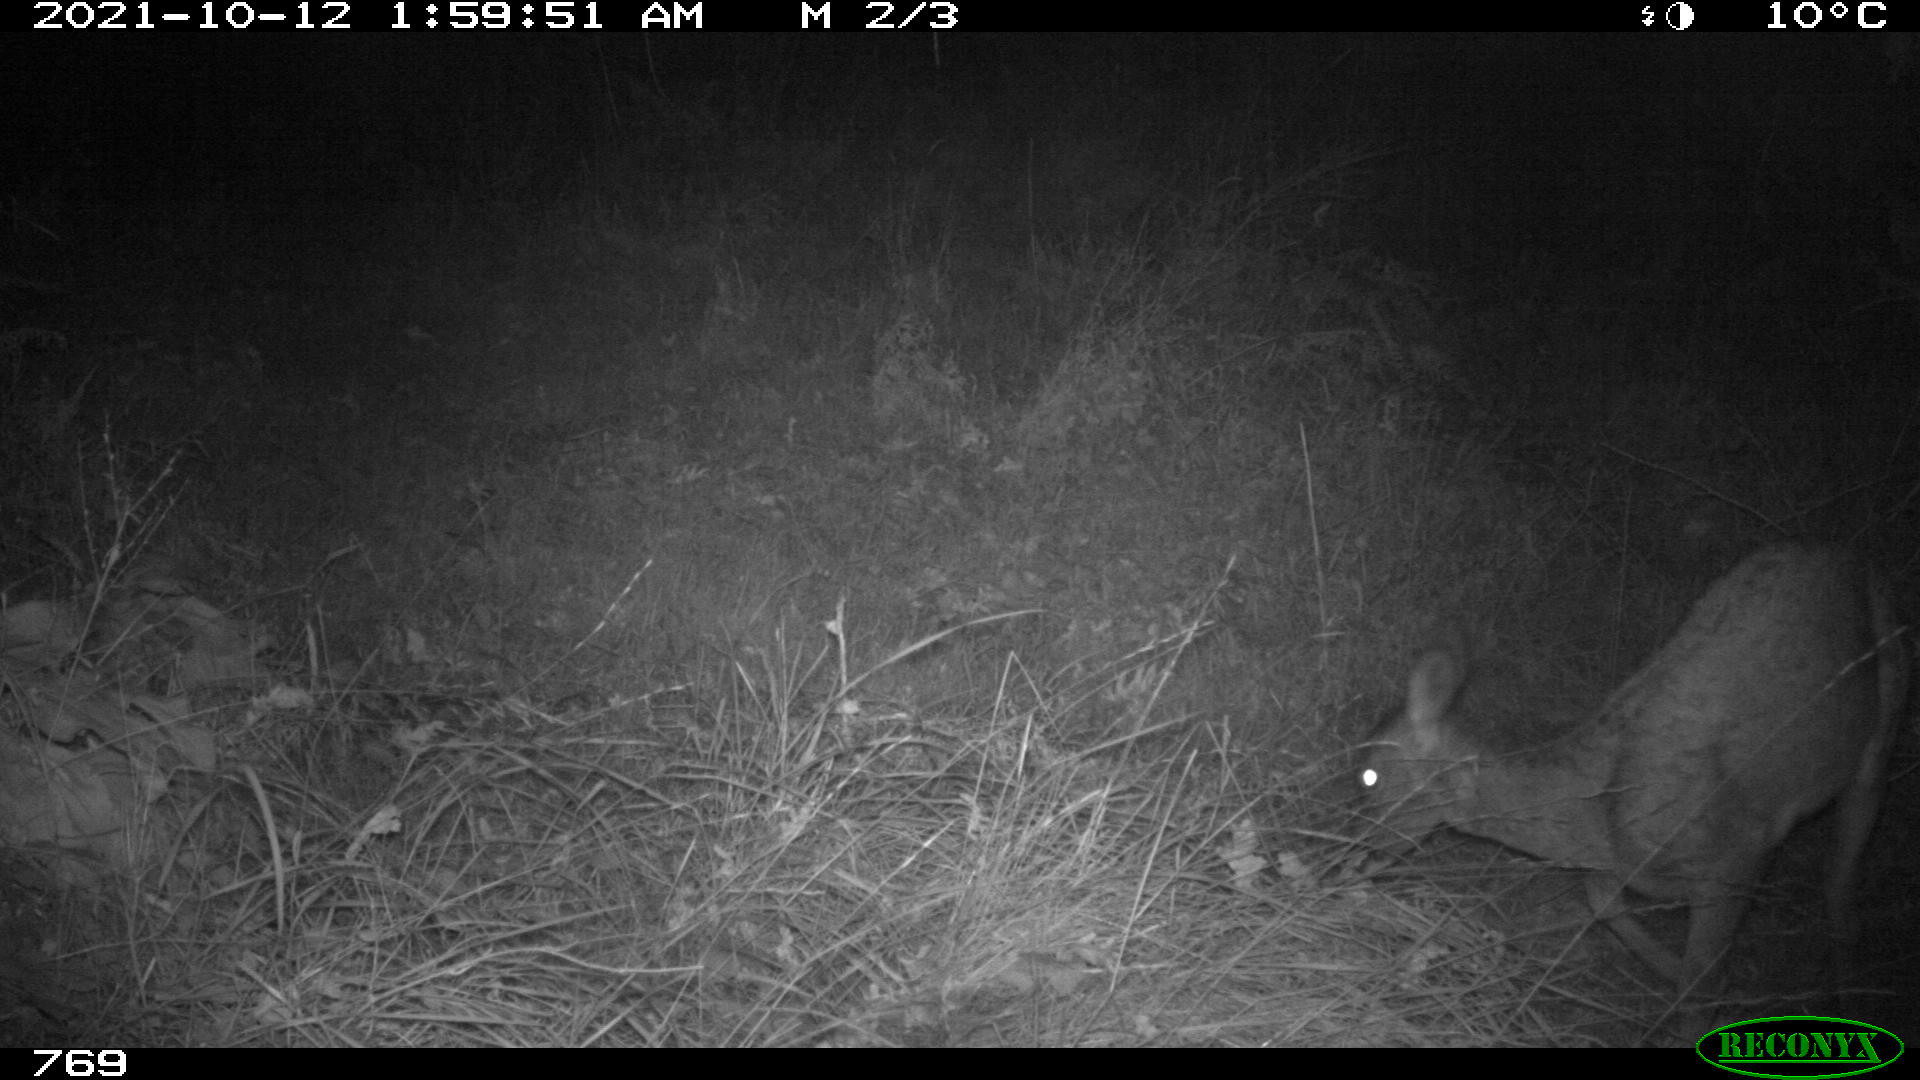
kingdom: Animalia
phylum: Chordata
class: Mammalia
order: Artiodactyla
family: Cervidae
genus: Capreolus
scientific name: Capreolus capreolus
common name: Western roe deer
